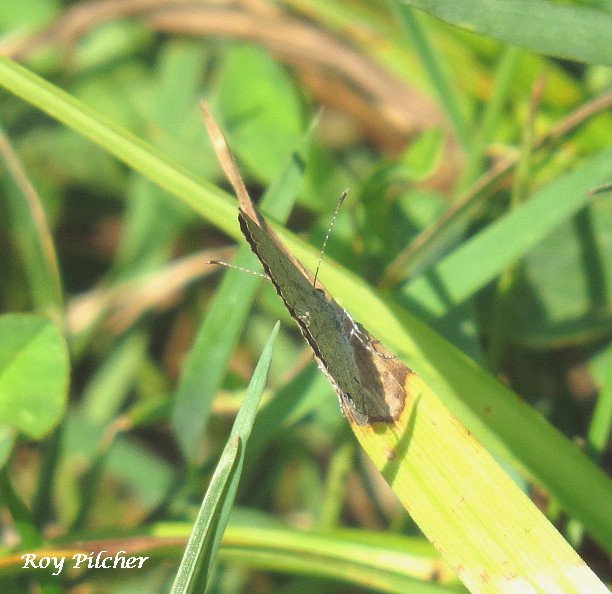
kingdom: Animalia
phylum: Arthropoda
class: Insecta
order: Lepidoptera
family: Lycaenidae
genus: Elkalyce
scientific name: Elkalyce comyntas
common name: Eastern Tailed-Blue
